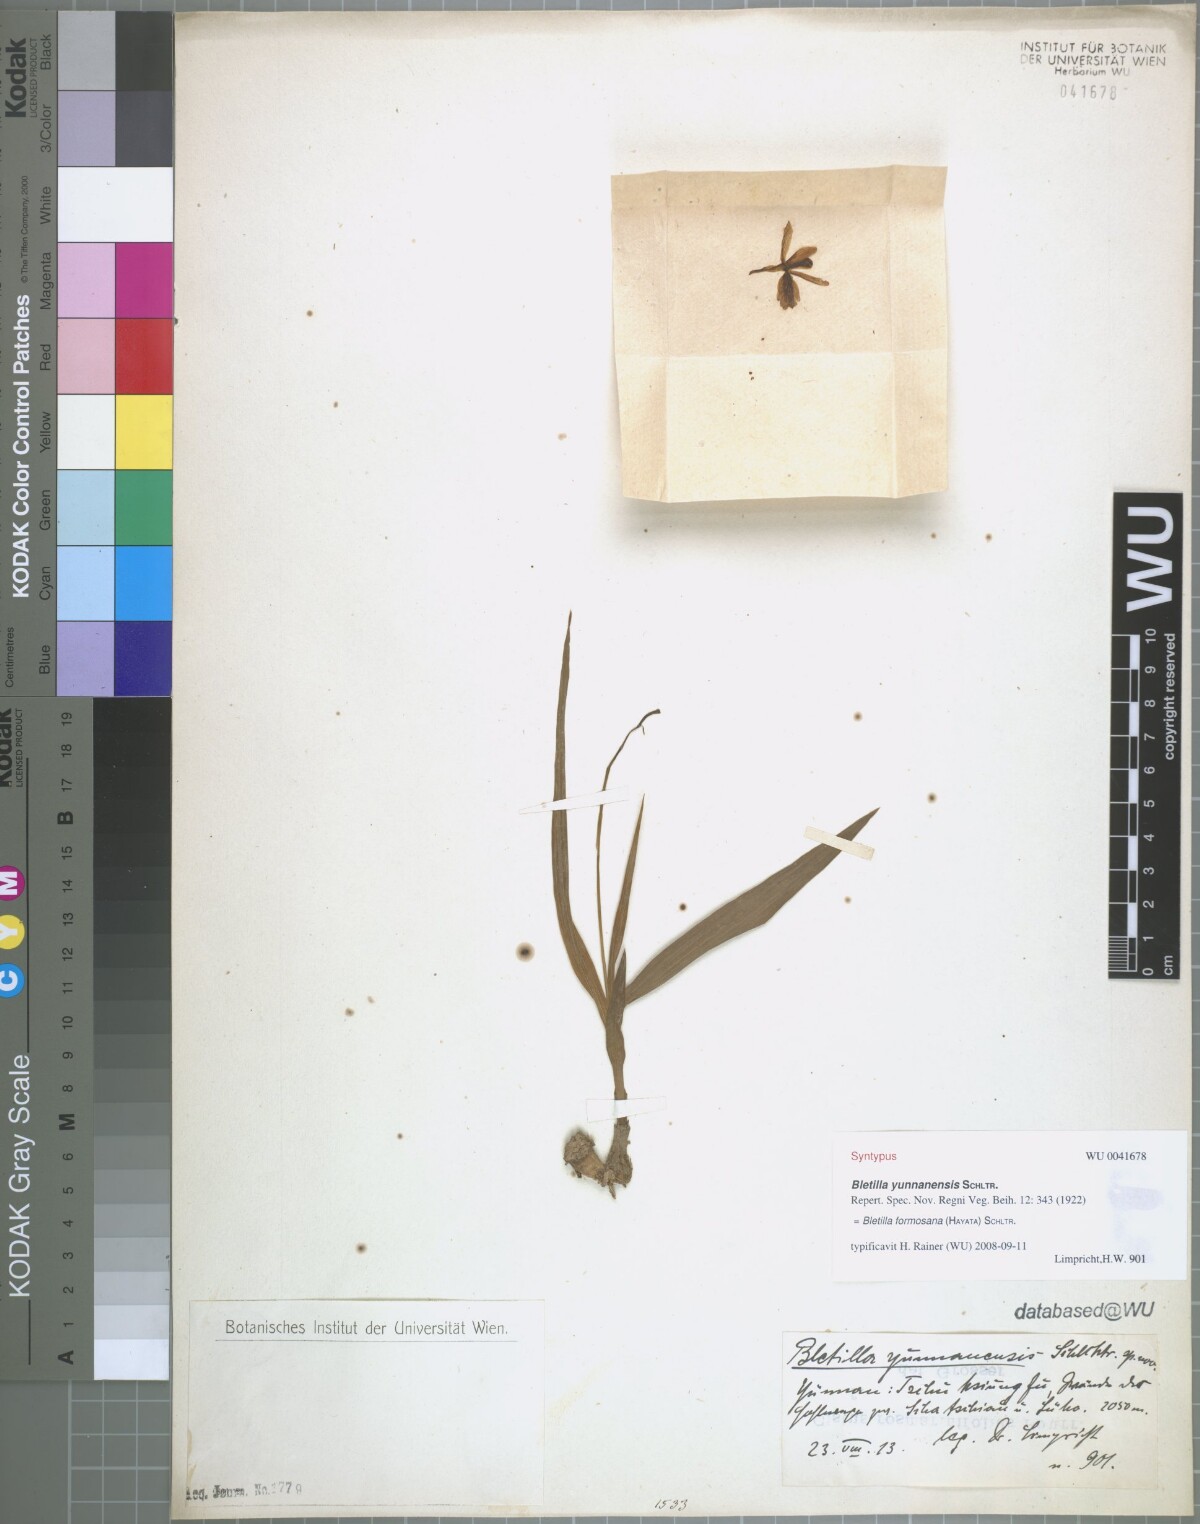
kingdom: Plantae
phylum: Tracheophyta
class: Liliopsida
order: Asparagales
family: Orchidaceae
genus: Bletilla
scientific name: Bletilla formosana
